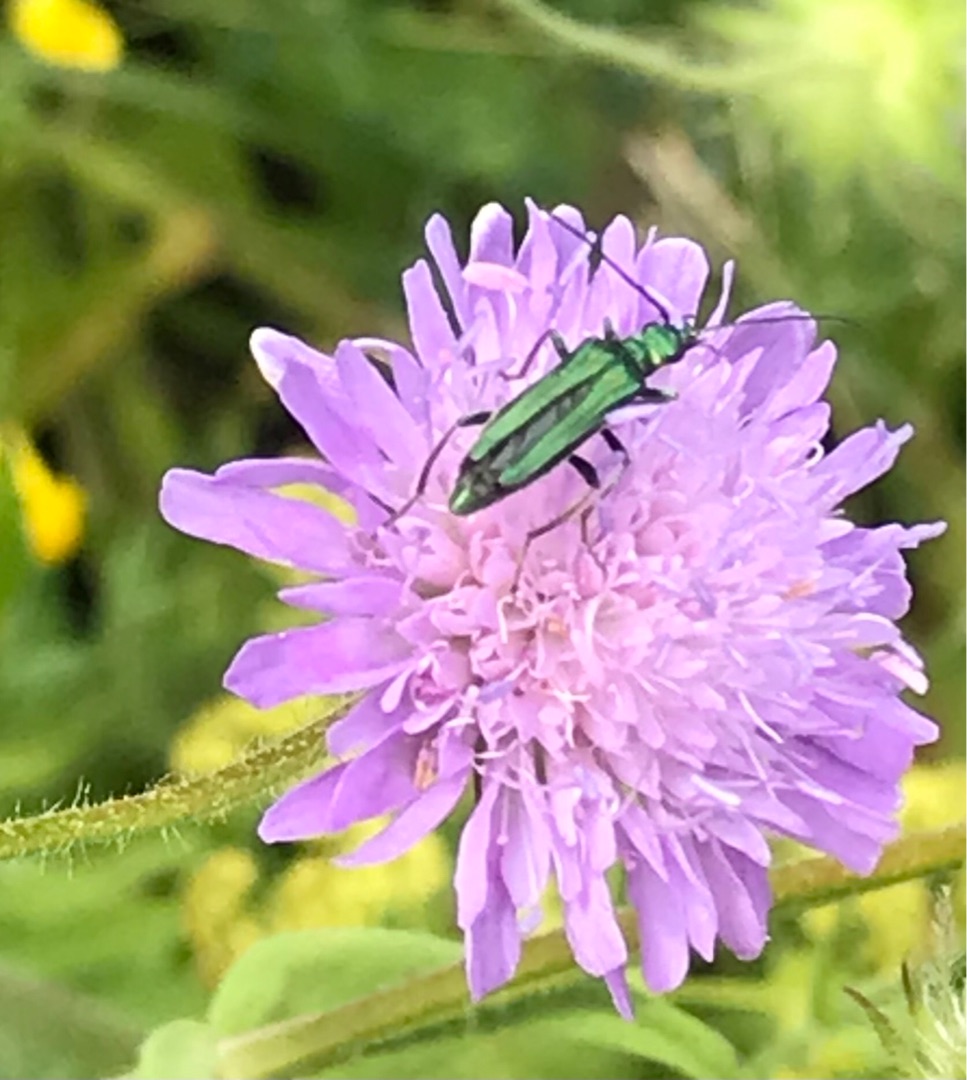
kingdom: Animalia
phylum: Arthropoda
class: Insecta
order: Coleoptera
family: Oedemeridae
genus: Oedemera
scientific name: Oedemera nobilis
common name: Tyklårssolbille
